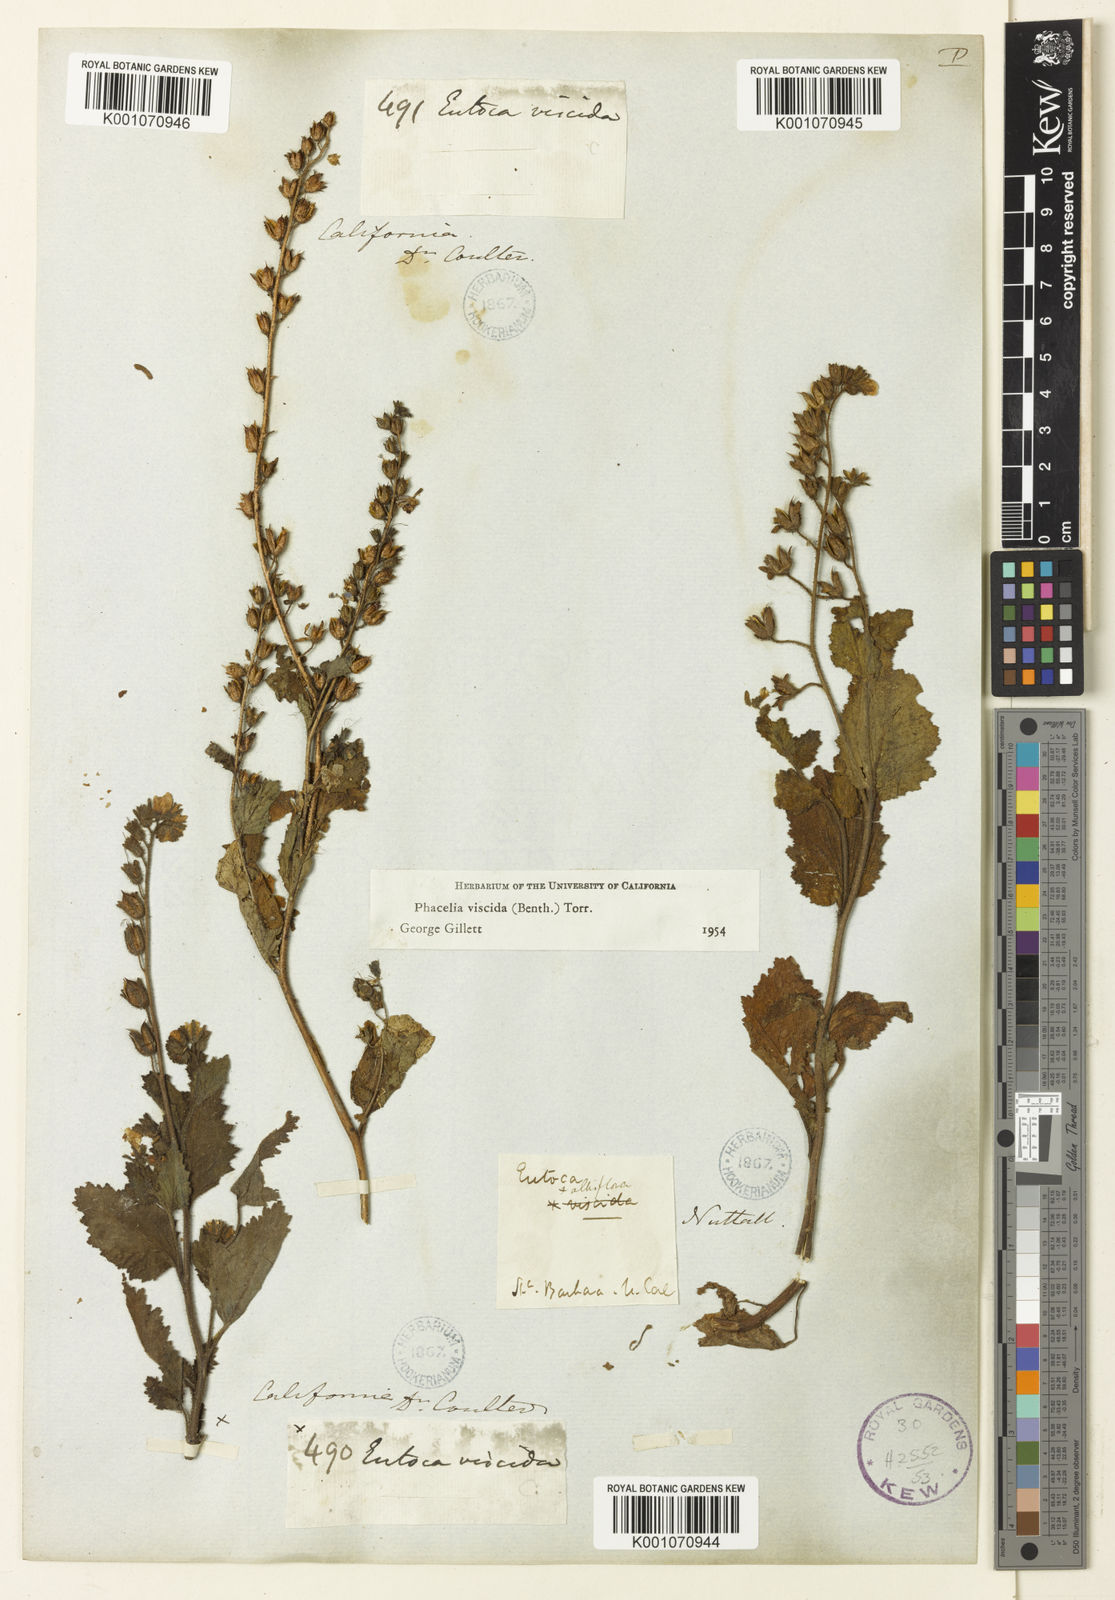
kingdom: Plantae
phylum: Tracheophyta
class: Magnoliopsida
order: Boraginales
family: Hydrophyllaceae
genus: Phacelia
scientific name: Phacelia viscida
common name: Sticky phacelia
